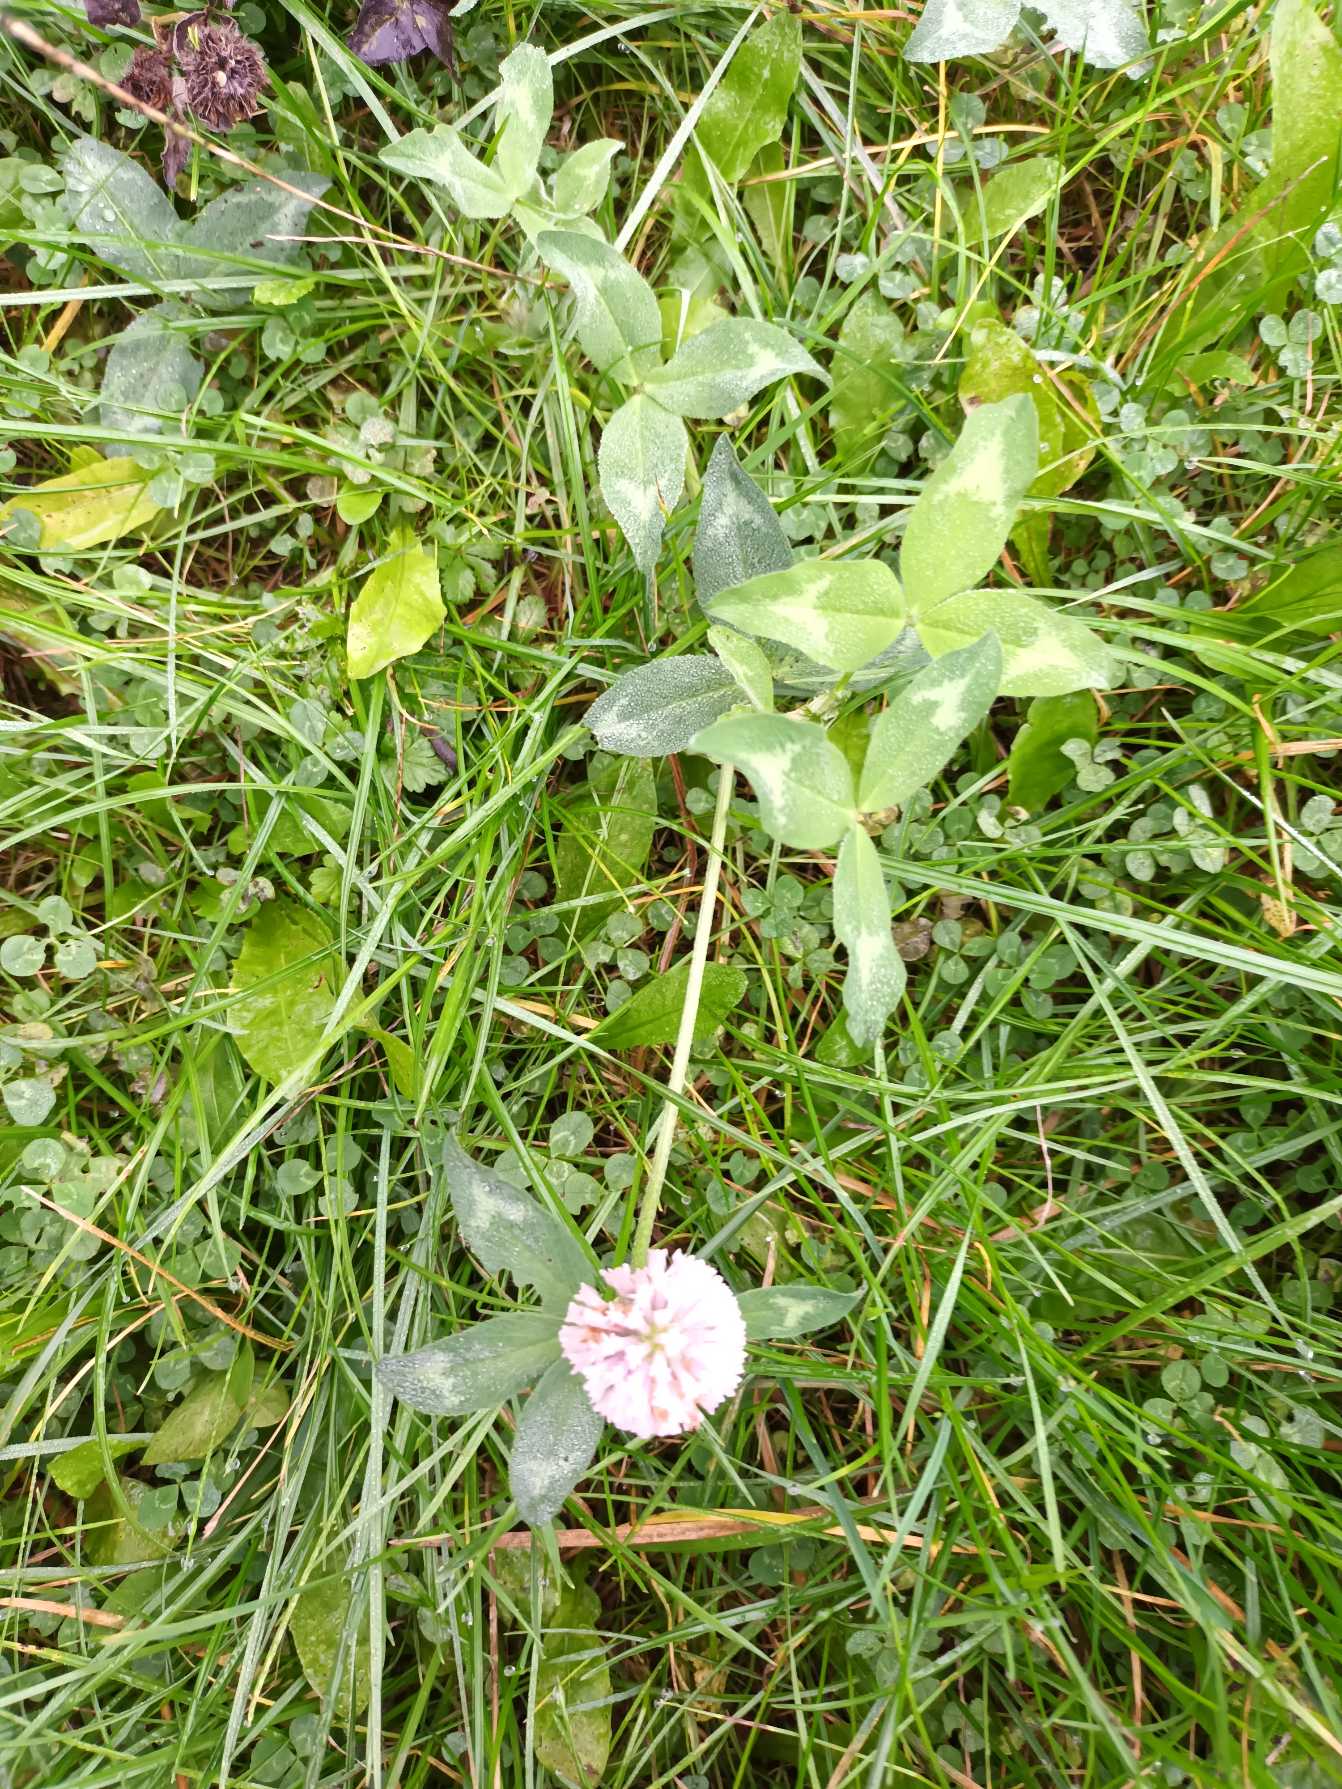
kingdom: Plantae
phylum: Tracheophyta
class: Magnoliopsida
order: Fabales
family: Fabaceae
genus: Trifolium
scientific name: Trifolium pratense
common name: Rød-kløver
